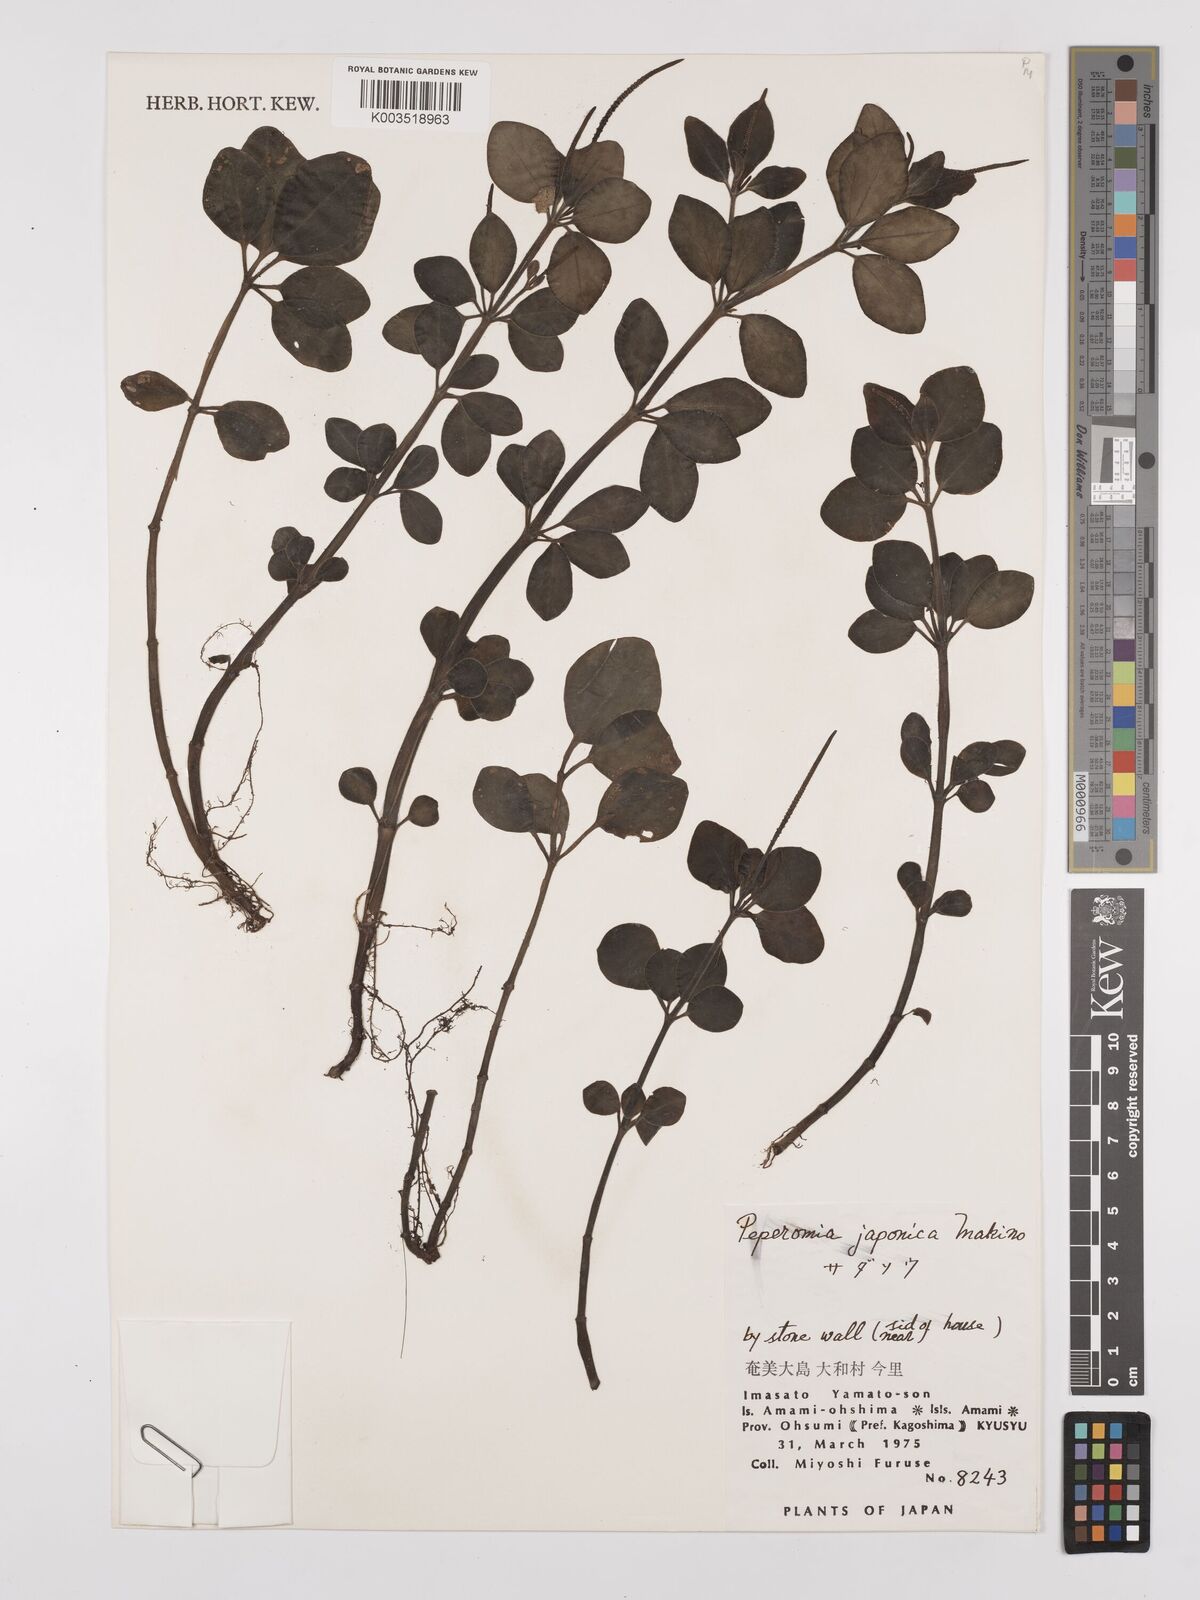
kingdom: Plantae
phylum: Tracheophyta
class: Magnoliopsida
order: Piperales
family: Piperaceae
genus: Peperomia
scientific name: Peperomia japonica
